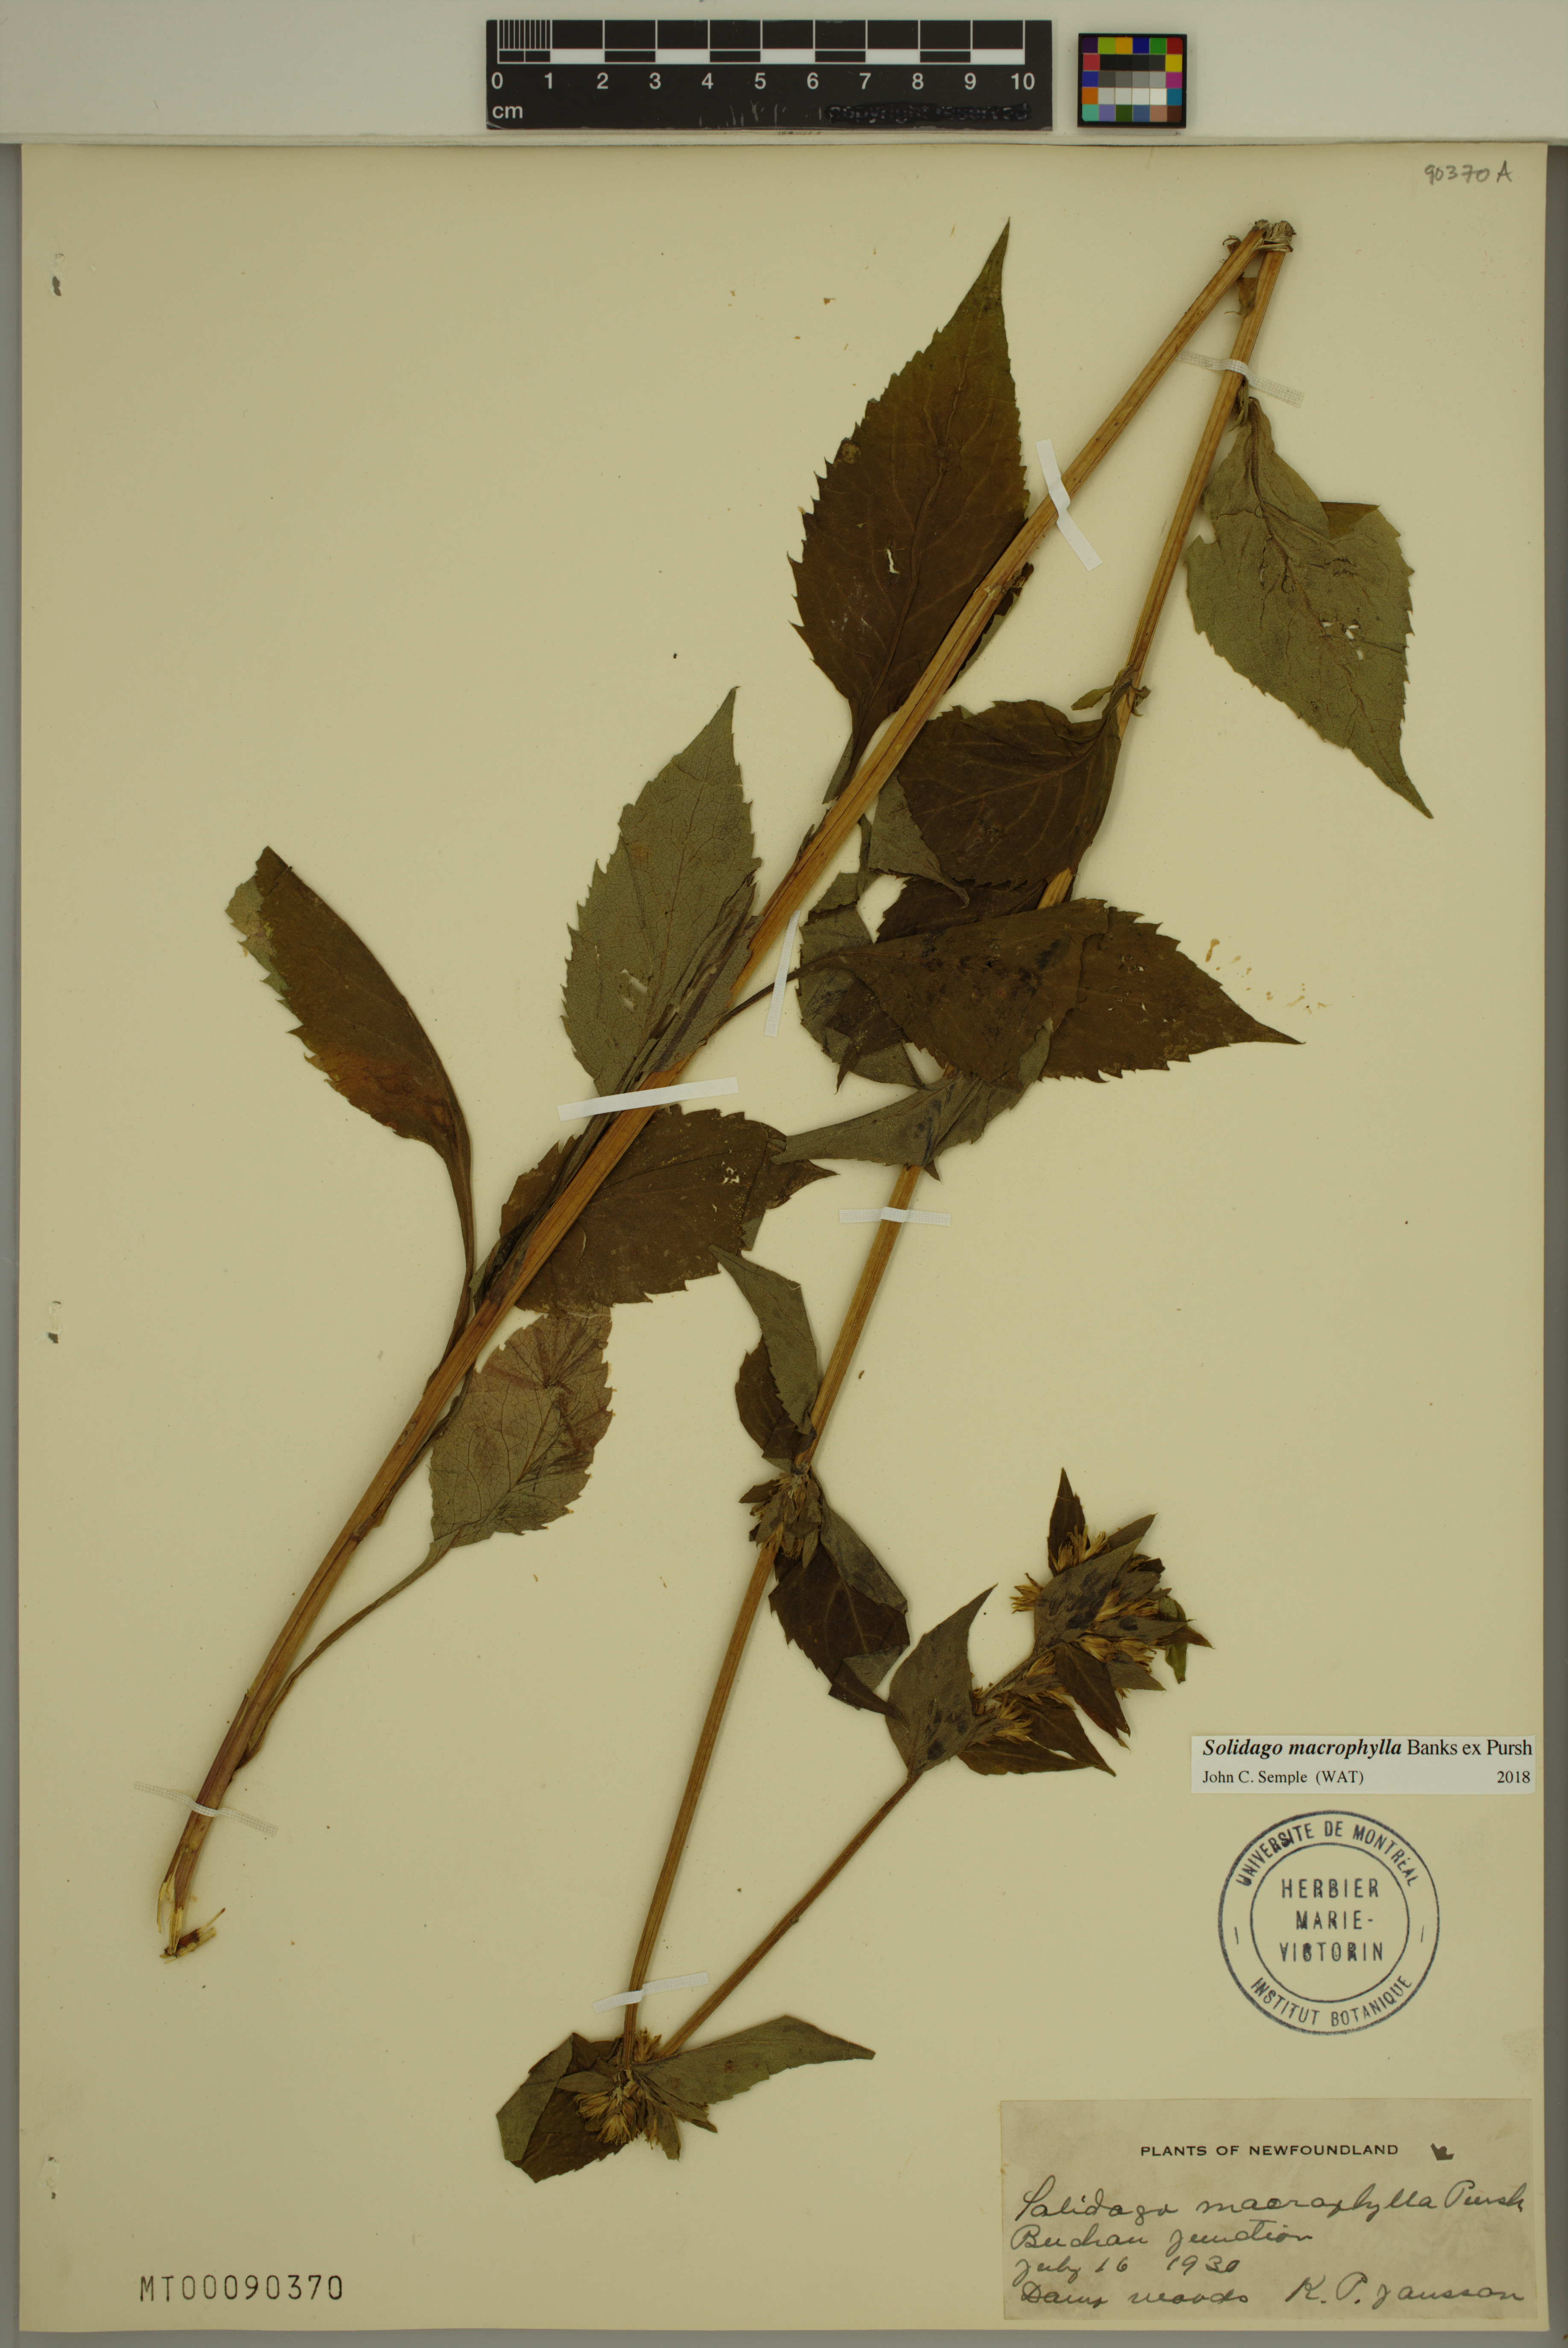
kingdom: Plantae
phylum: Tracheophyta
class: Magnoliopsida
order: Asterales
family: Asteraceae
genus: Solidago
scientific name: Solidago macrophylla
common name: Large-leaved goldenrod
